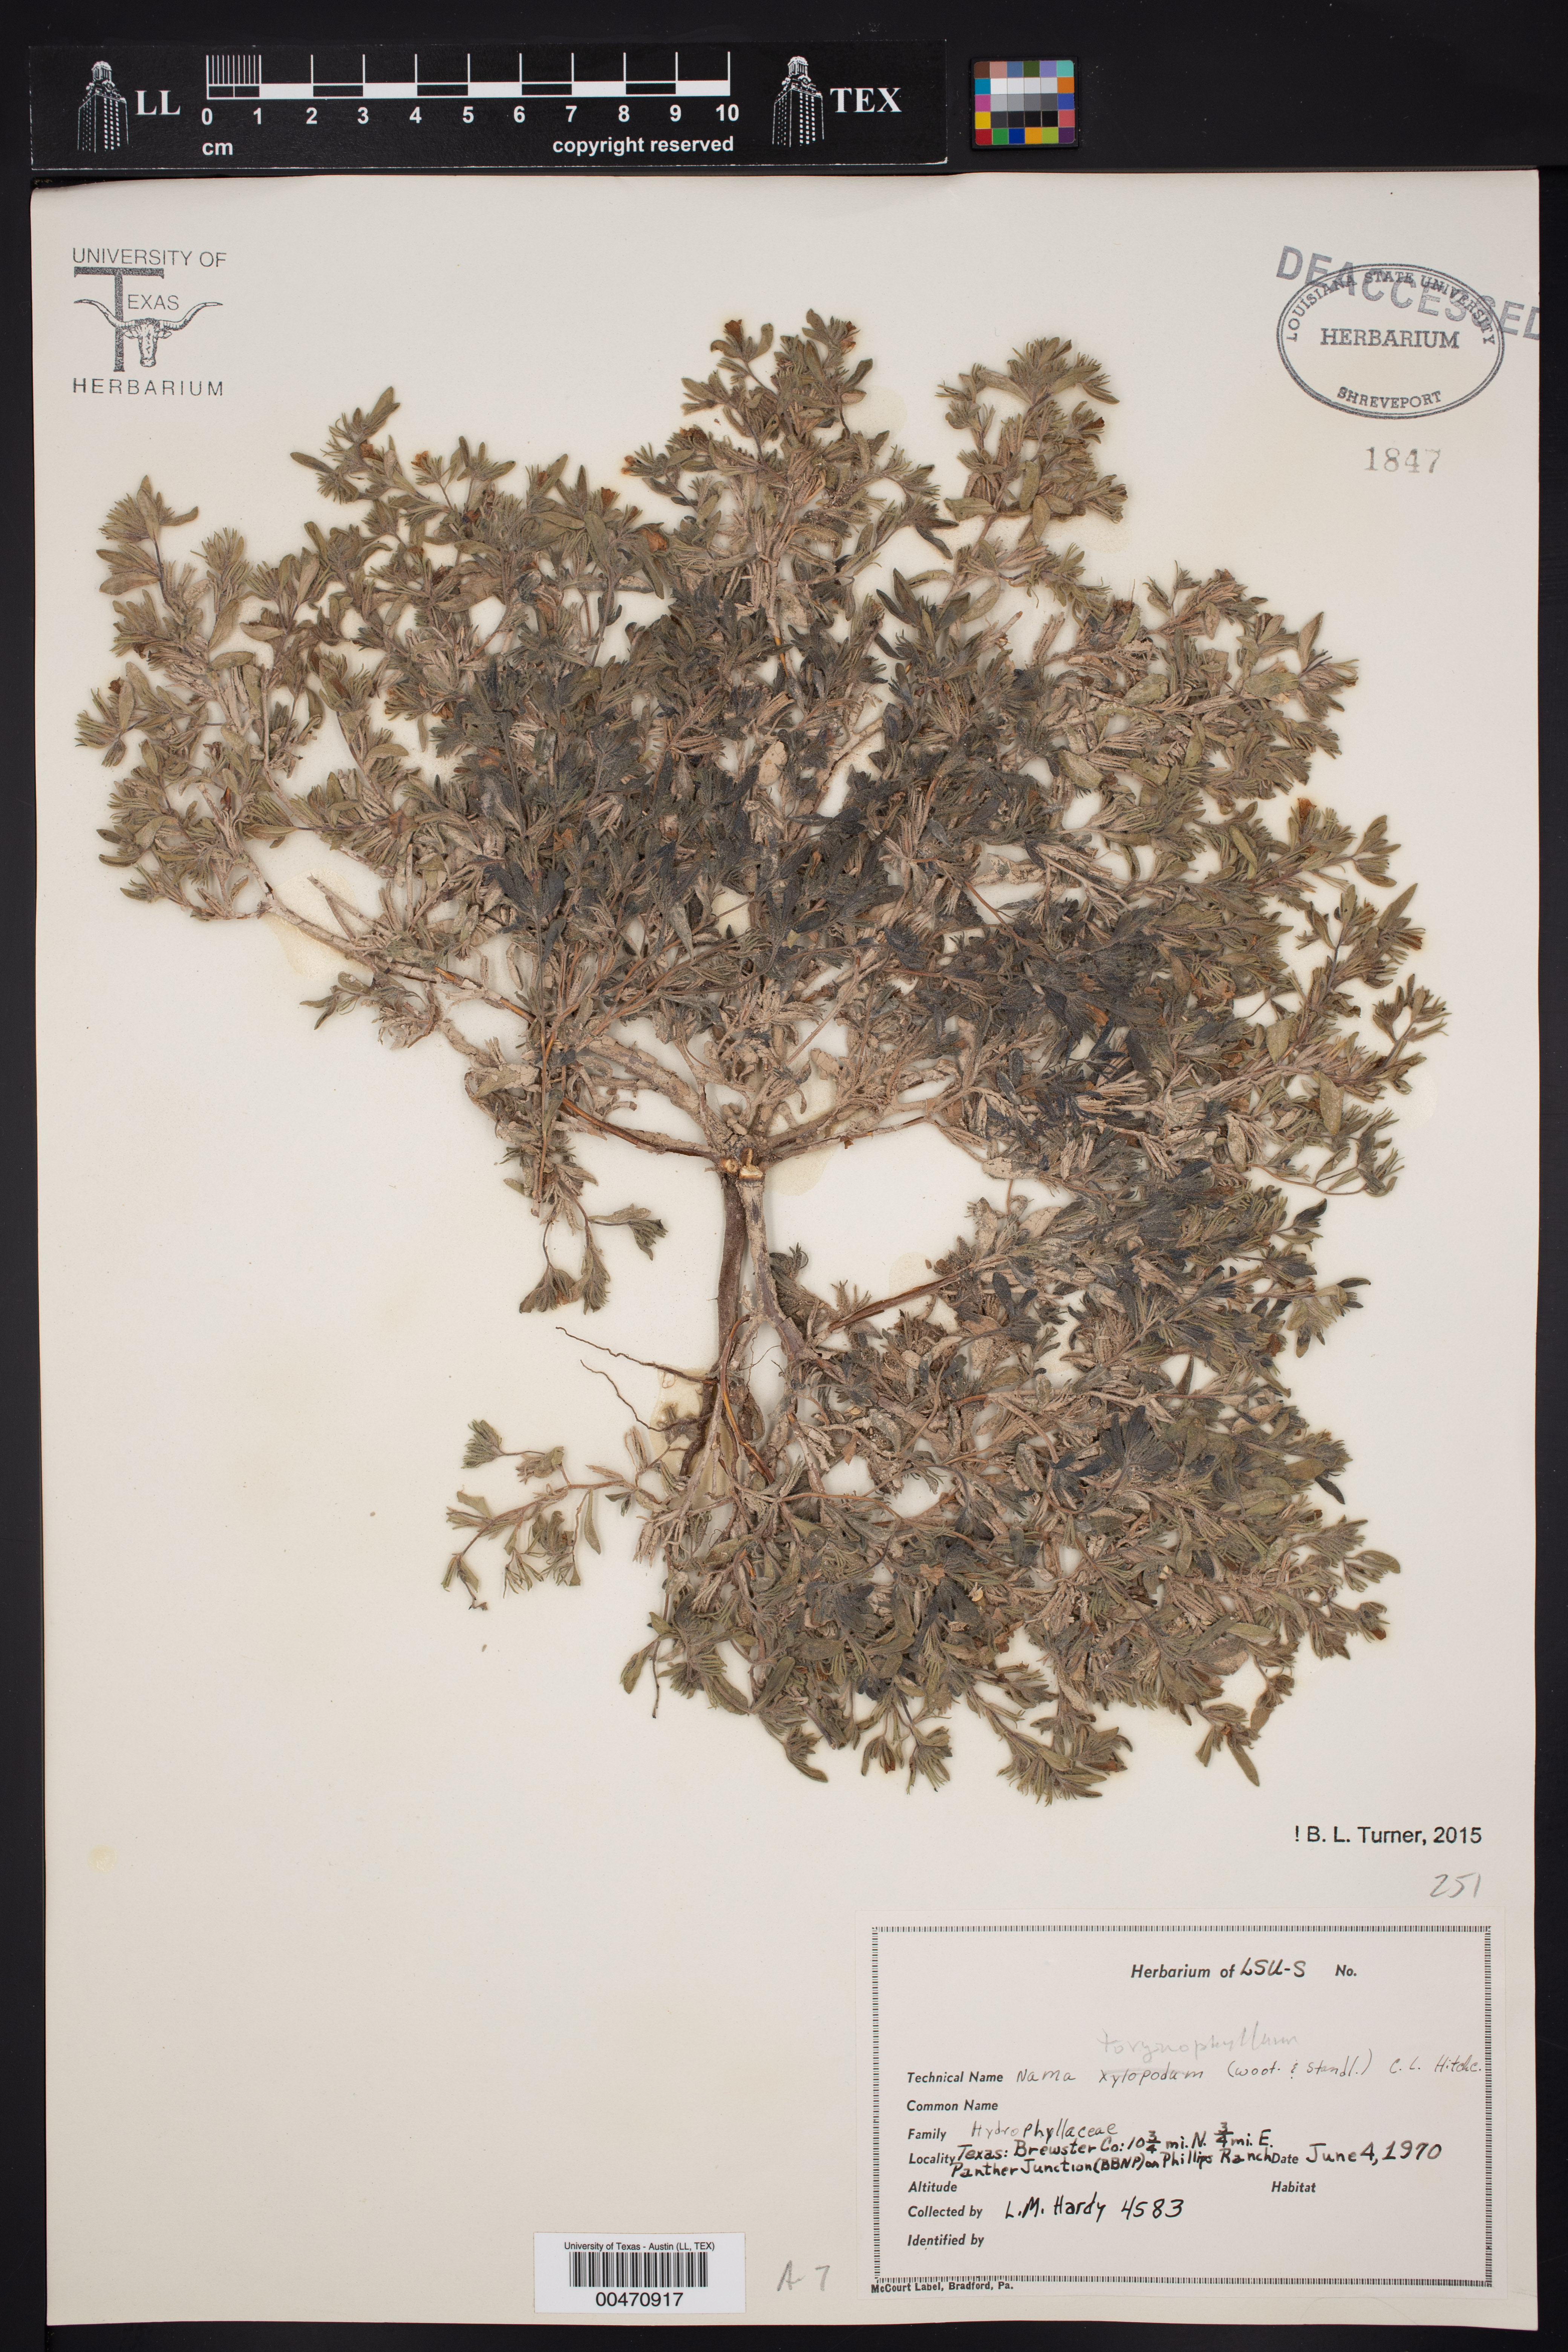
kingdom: Plantae
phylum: Tracheophyta
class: Magnoliopsida
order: Boraginales
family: Namaceae
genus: Nama
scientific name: Nama torynophylla
